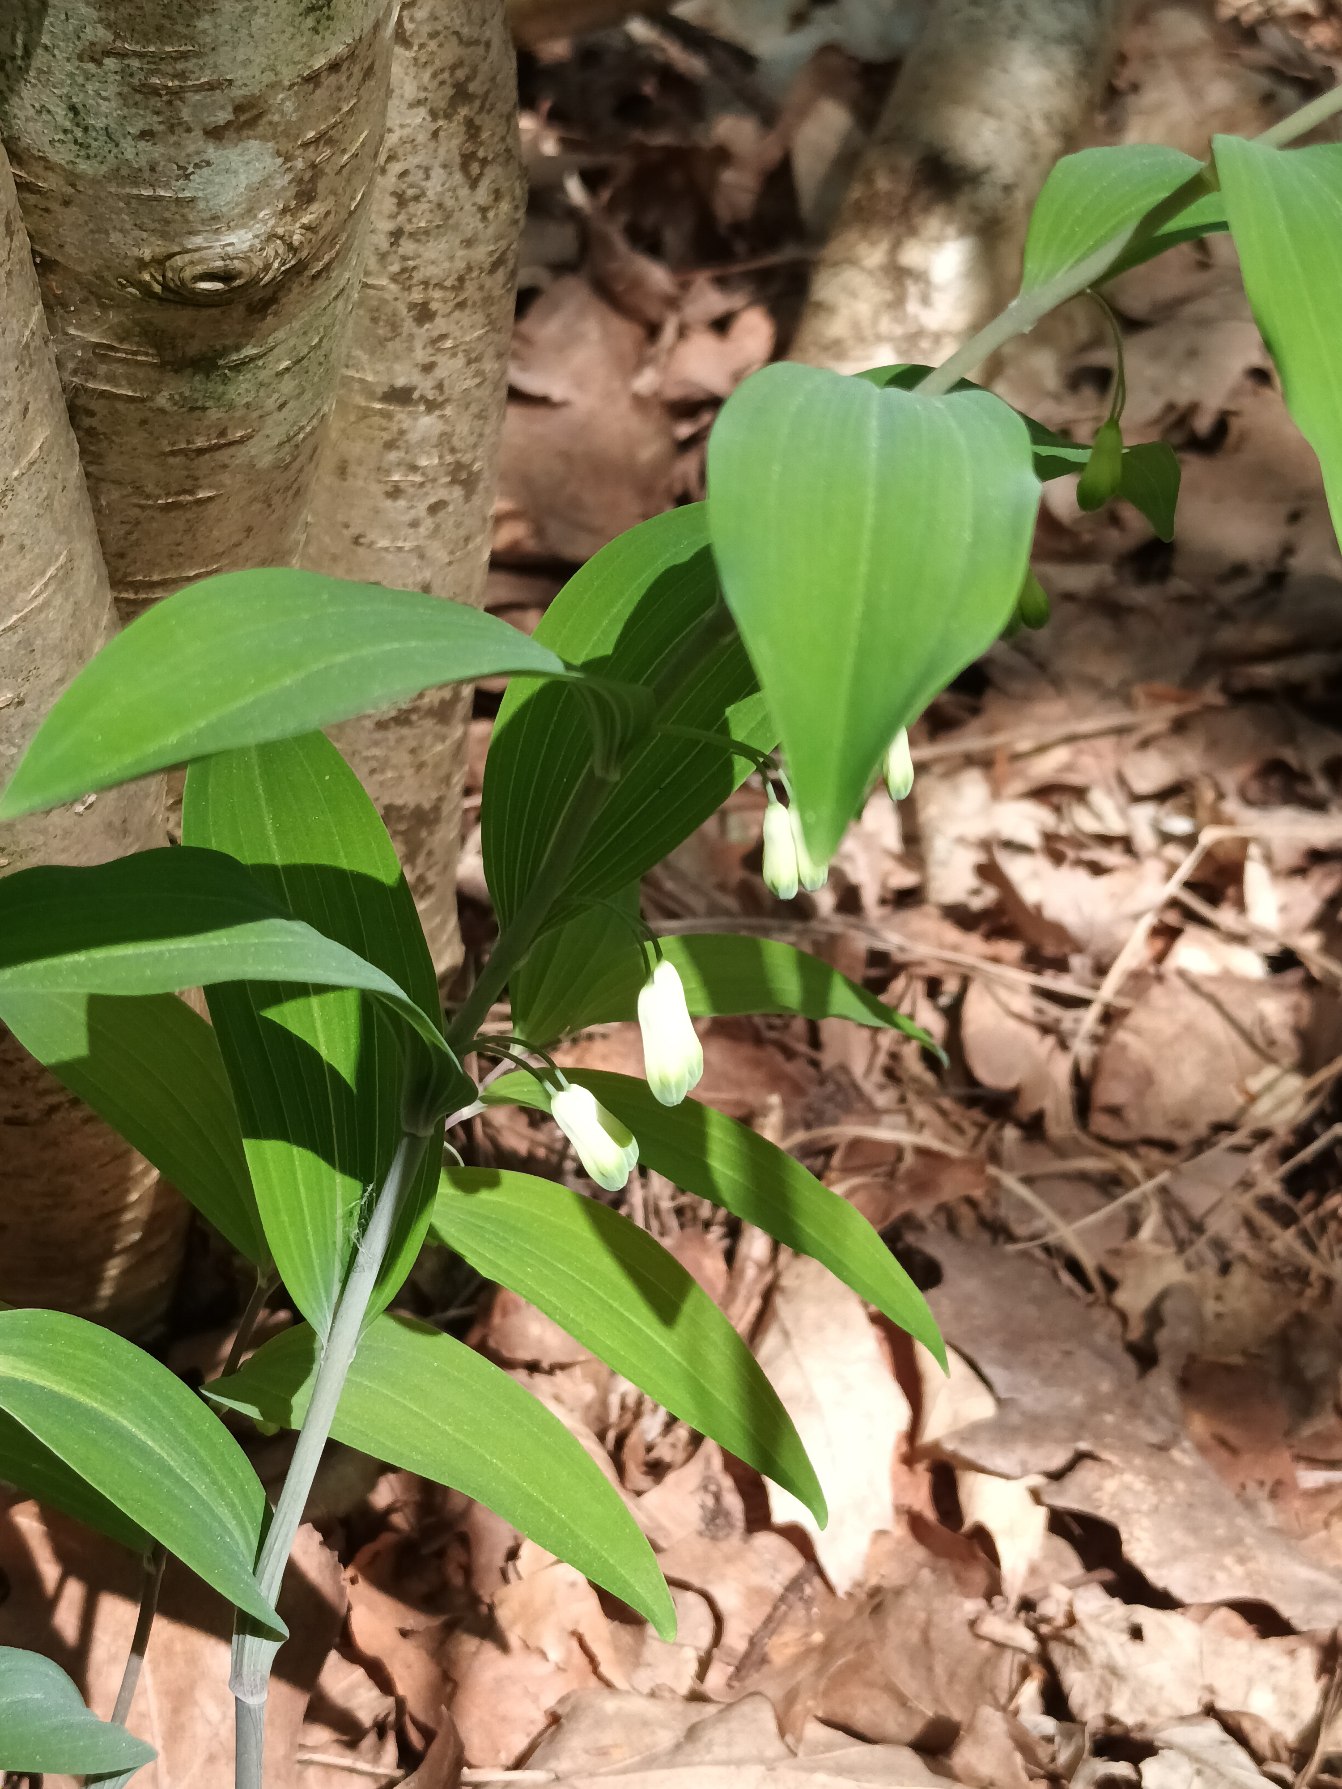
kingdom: Plantae
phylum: Tracheophyta
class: Liliopsida
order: Asparagales
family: Asparagaceae
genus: Polygonatum
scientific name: Polygonatum multiflorum
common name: Stor konval
